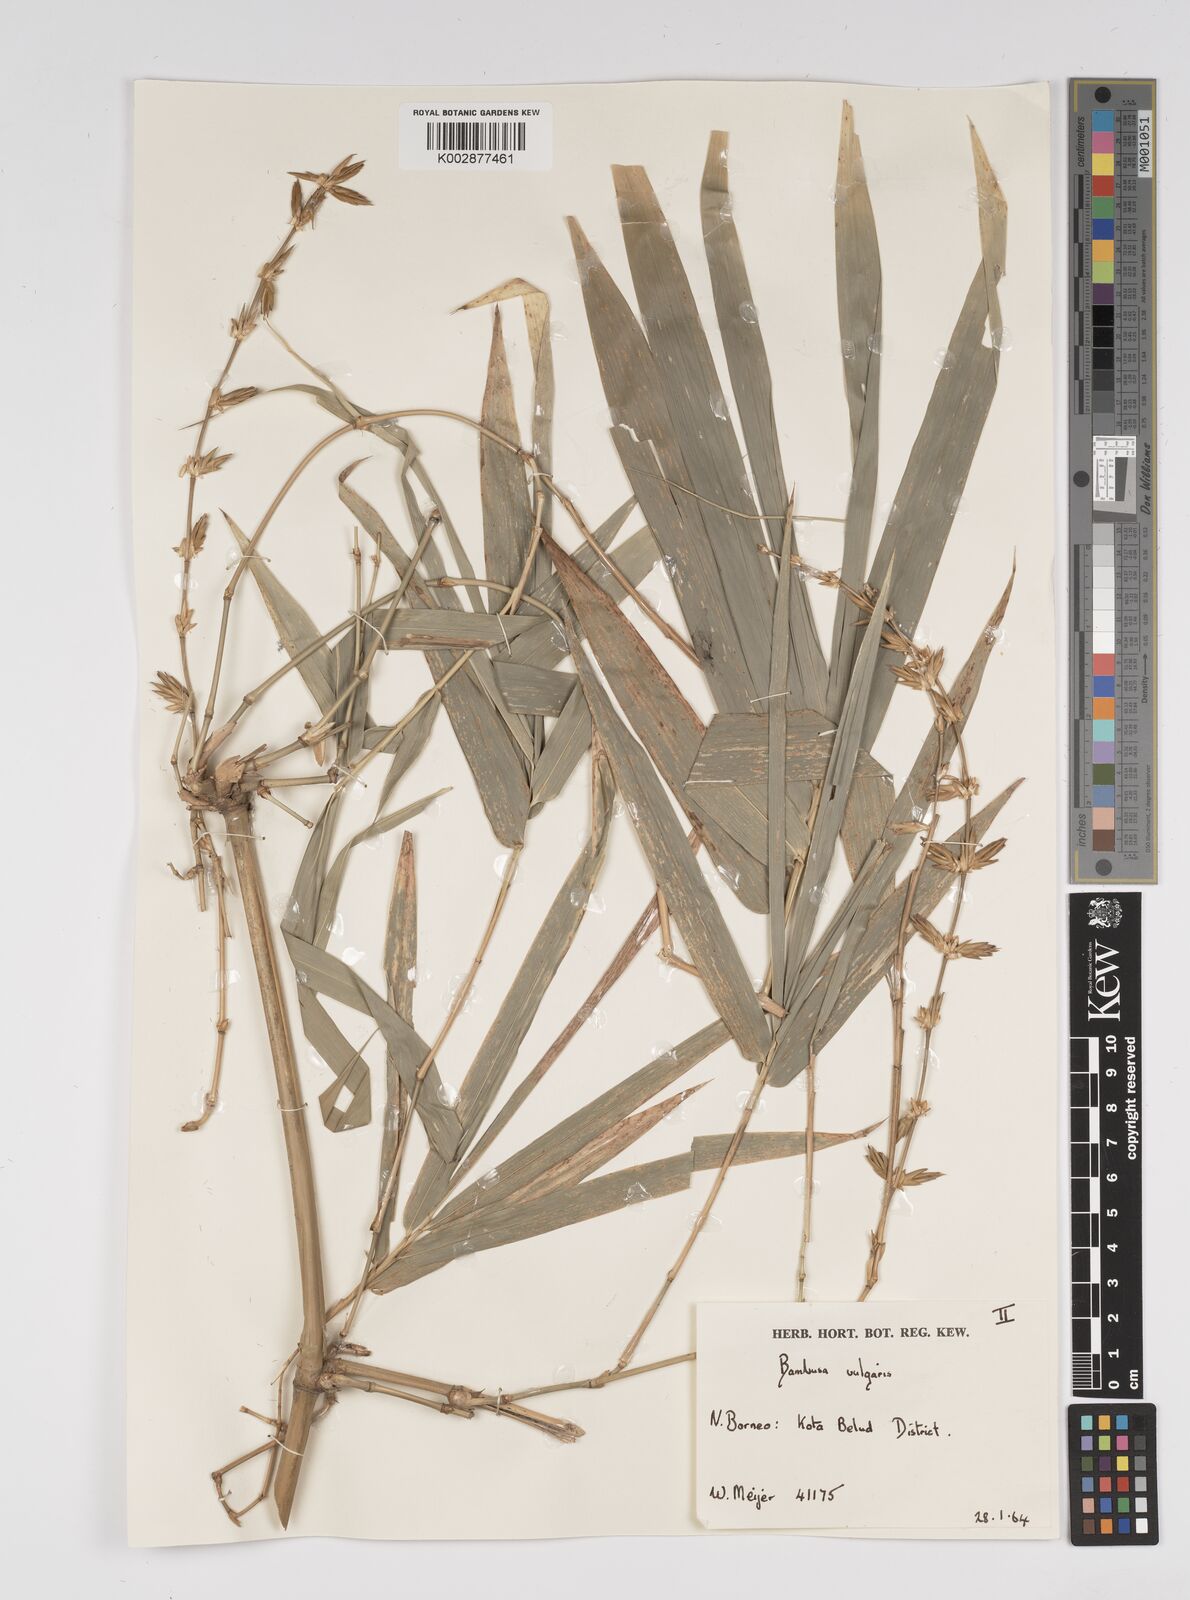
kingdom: Plantae
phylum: Tracheophyta
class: Liliopsida
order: Poales
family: Poaceae
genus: Bambusa
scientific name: Bambusa vulgaris
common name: Common bamboo
